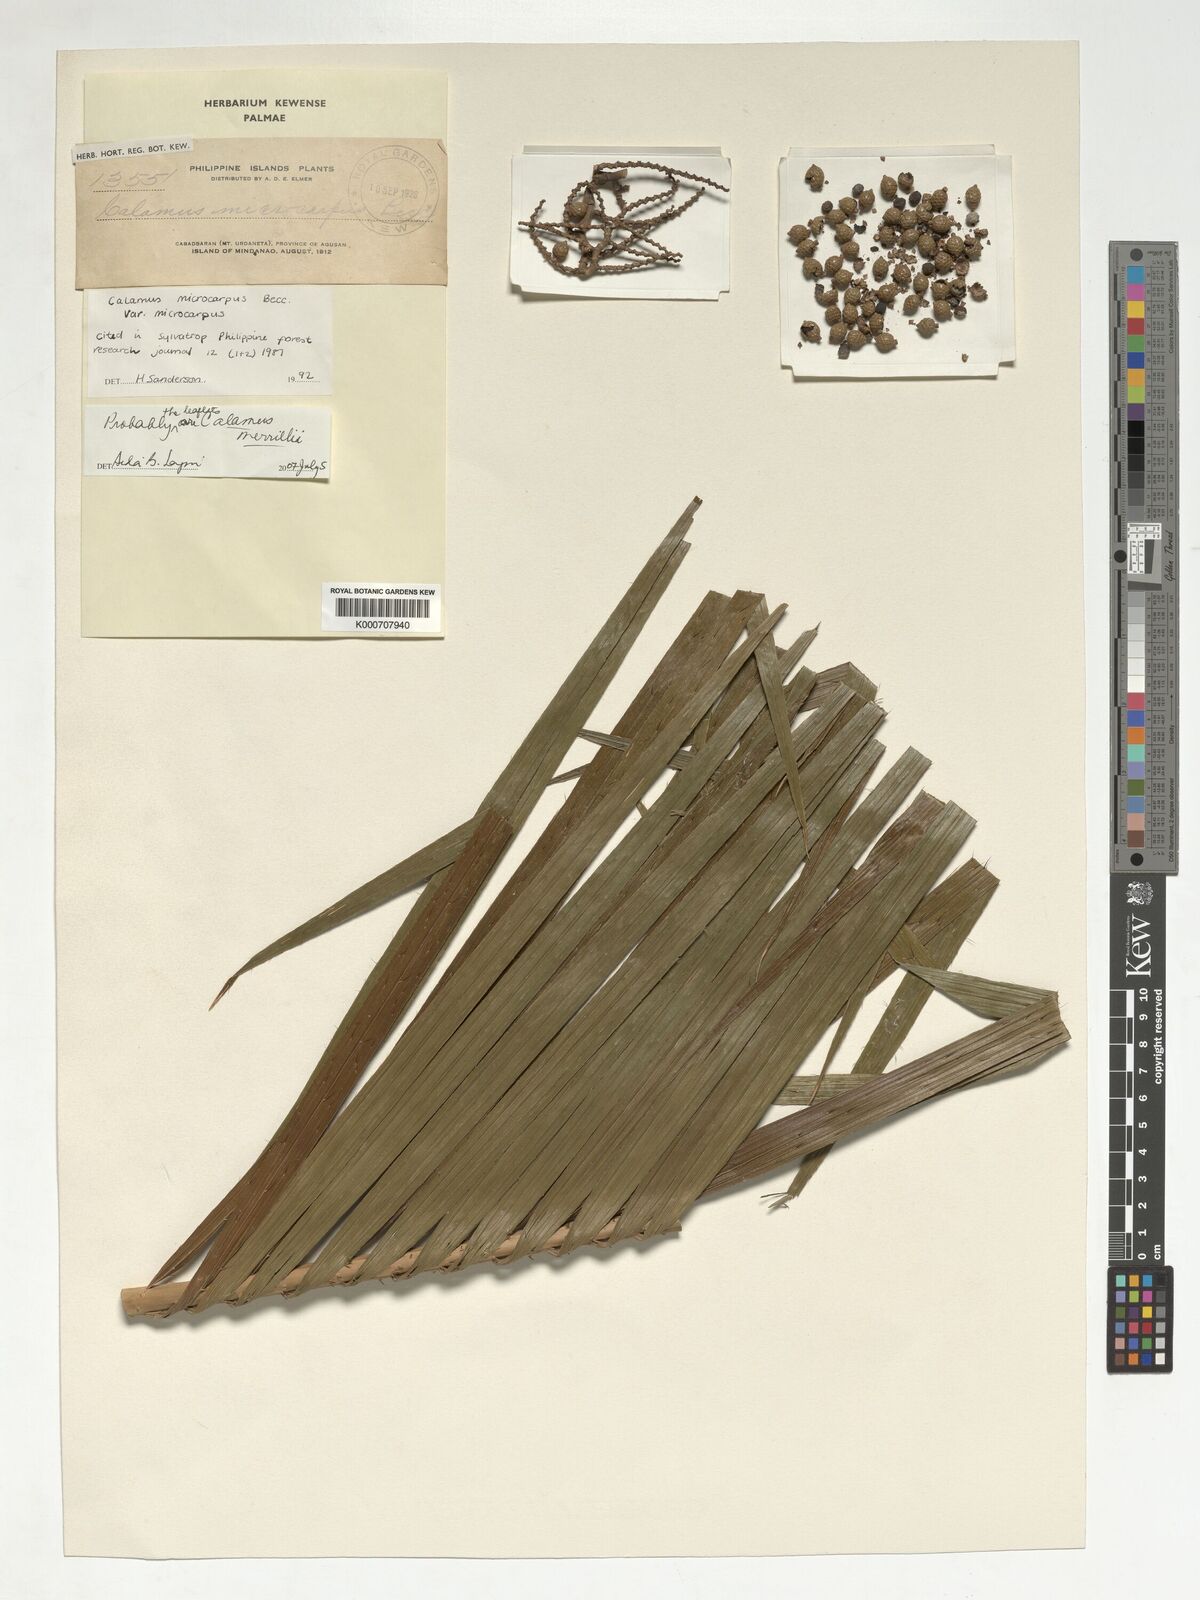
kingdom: Plantae
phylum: Tracheophyta
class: Liliopsida
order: Arecales
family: Arecaceae
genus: Calamus
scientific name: Calamus siphonospathus
